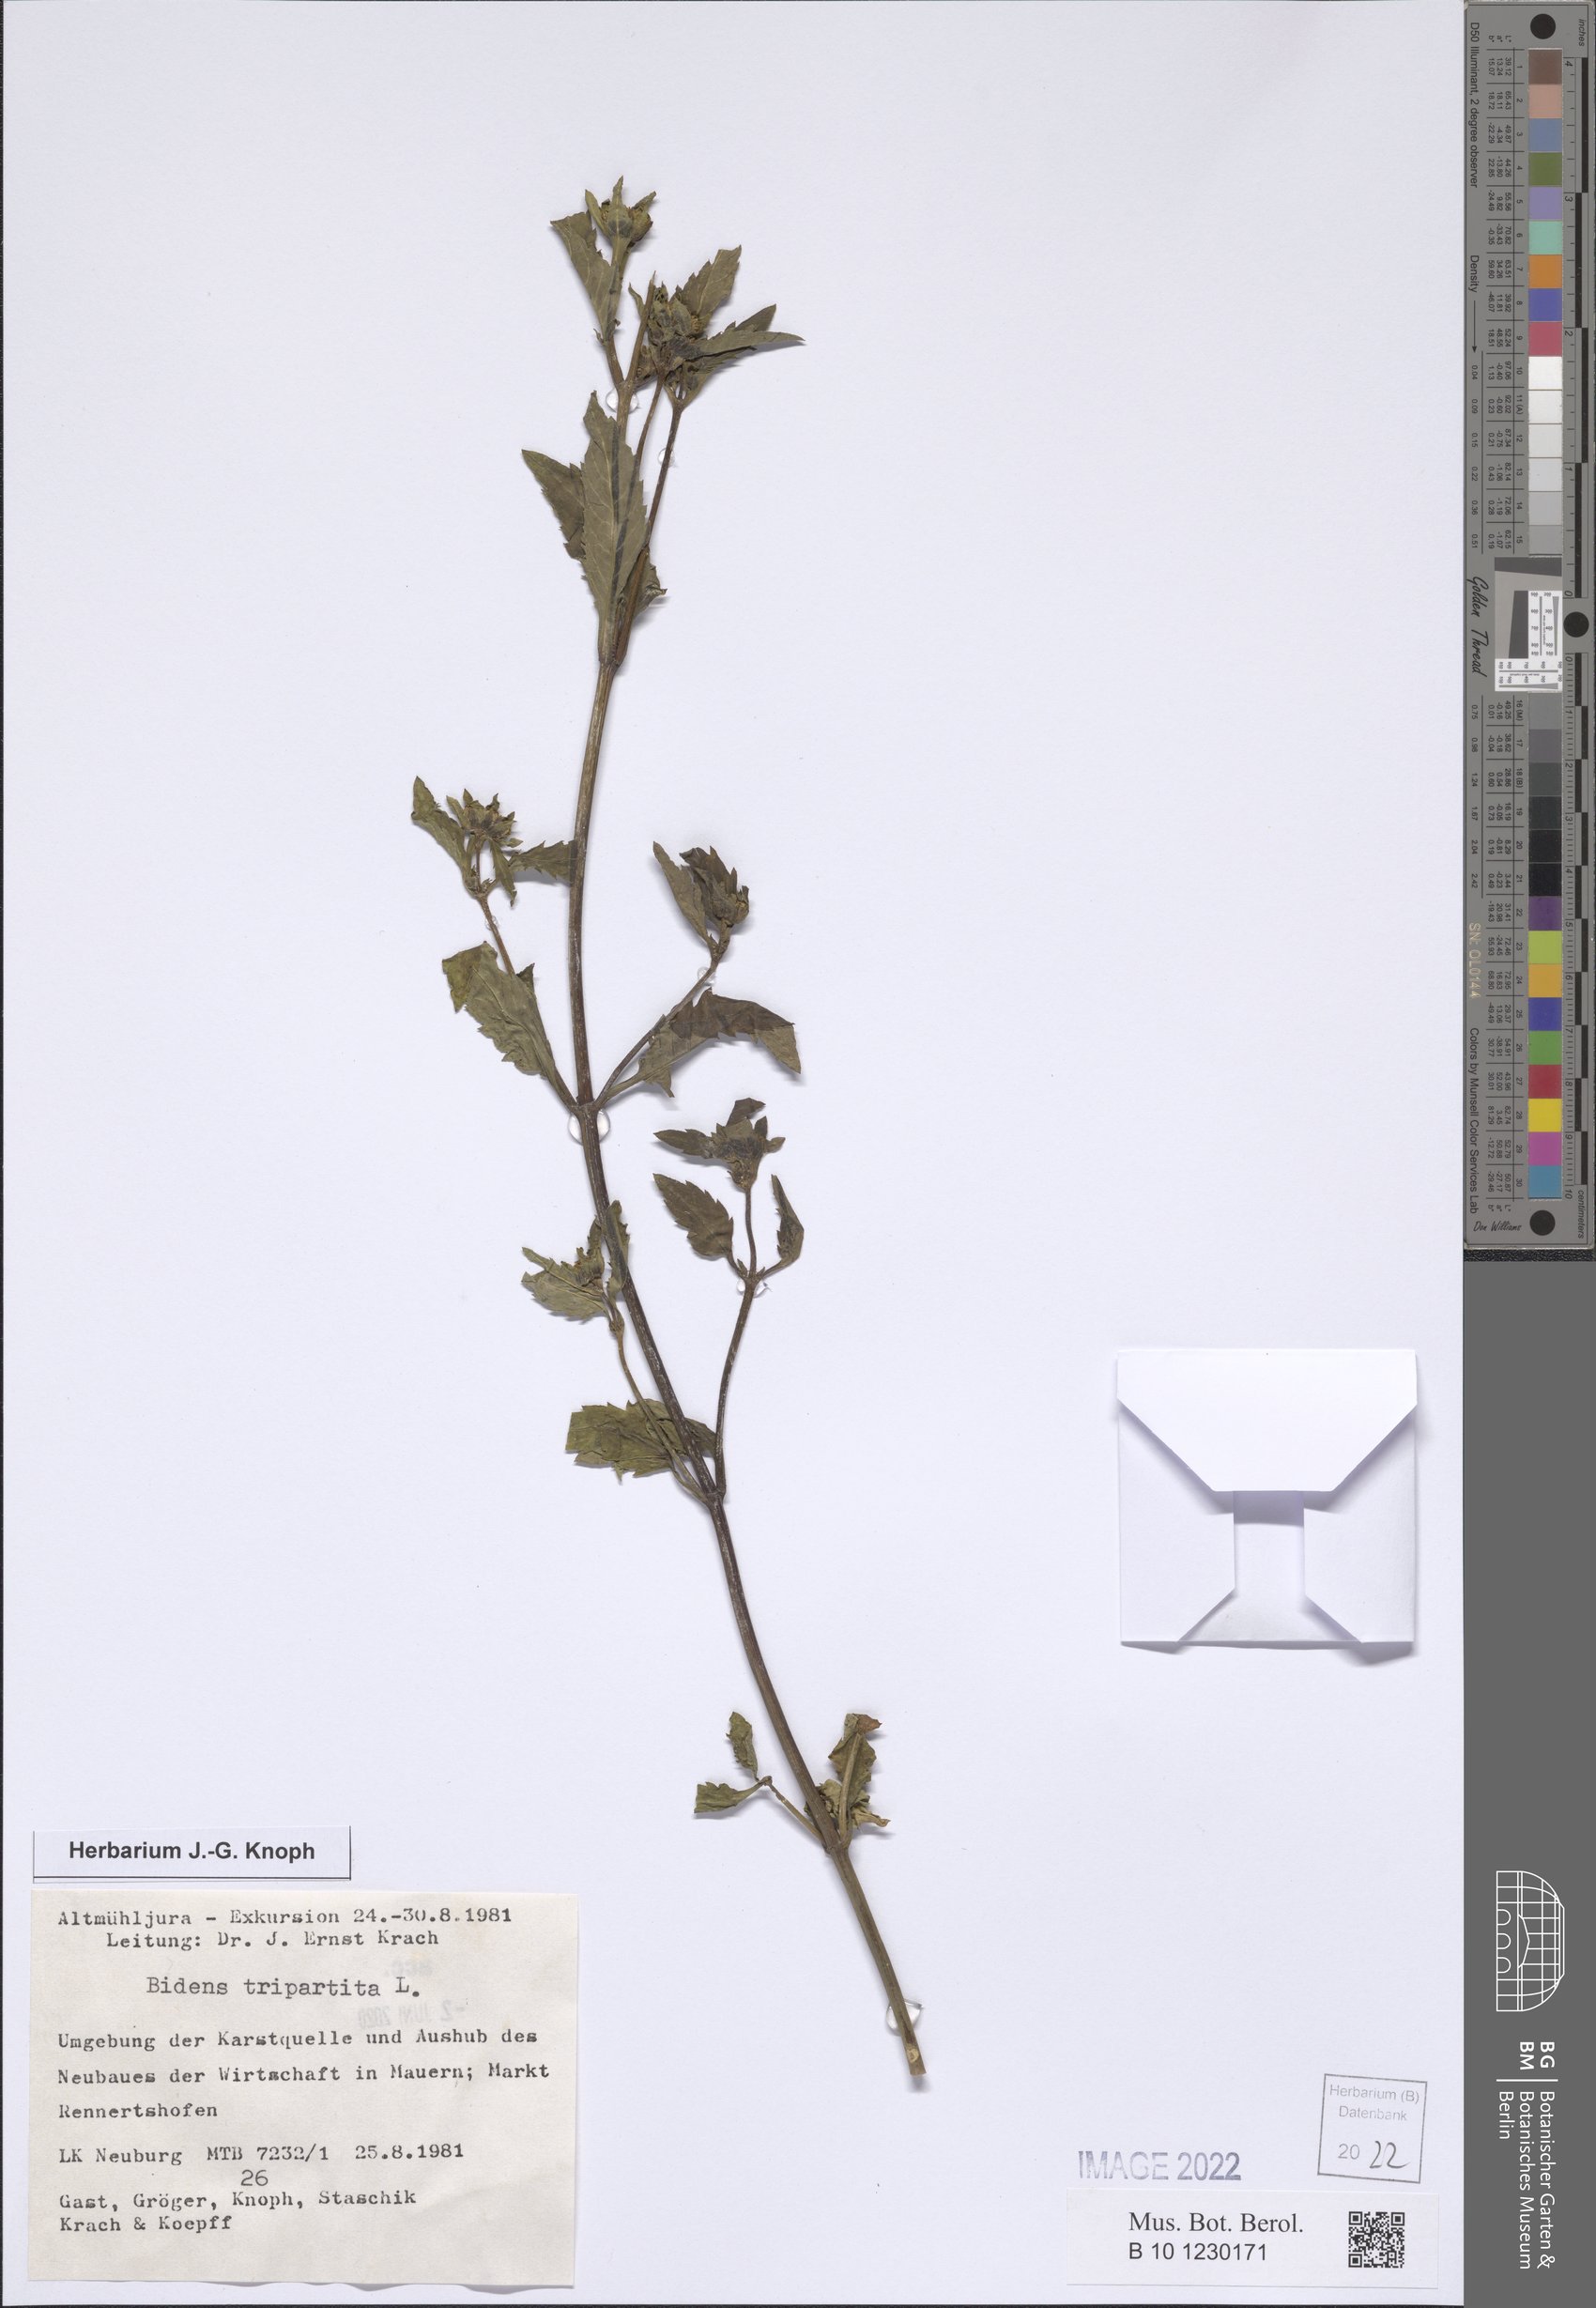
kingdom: Plantae
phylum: Tracheophyta
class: Magnoliopsida
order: Asterales
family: Asteraceae
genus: Bidens
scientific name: Bidens tripartita
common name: Trifid bur-marigold
